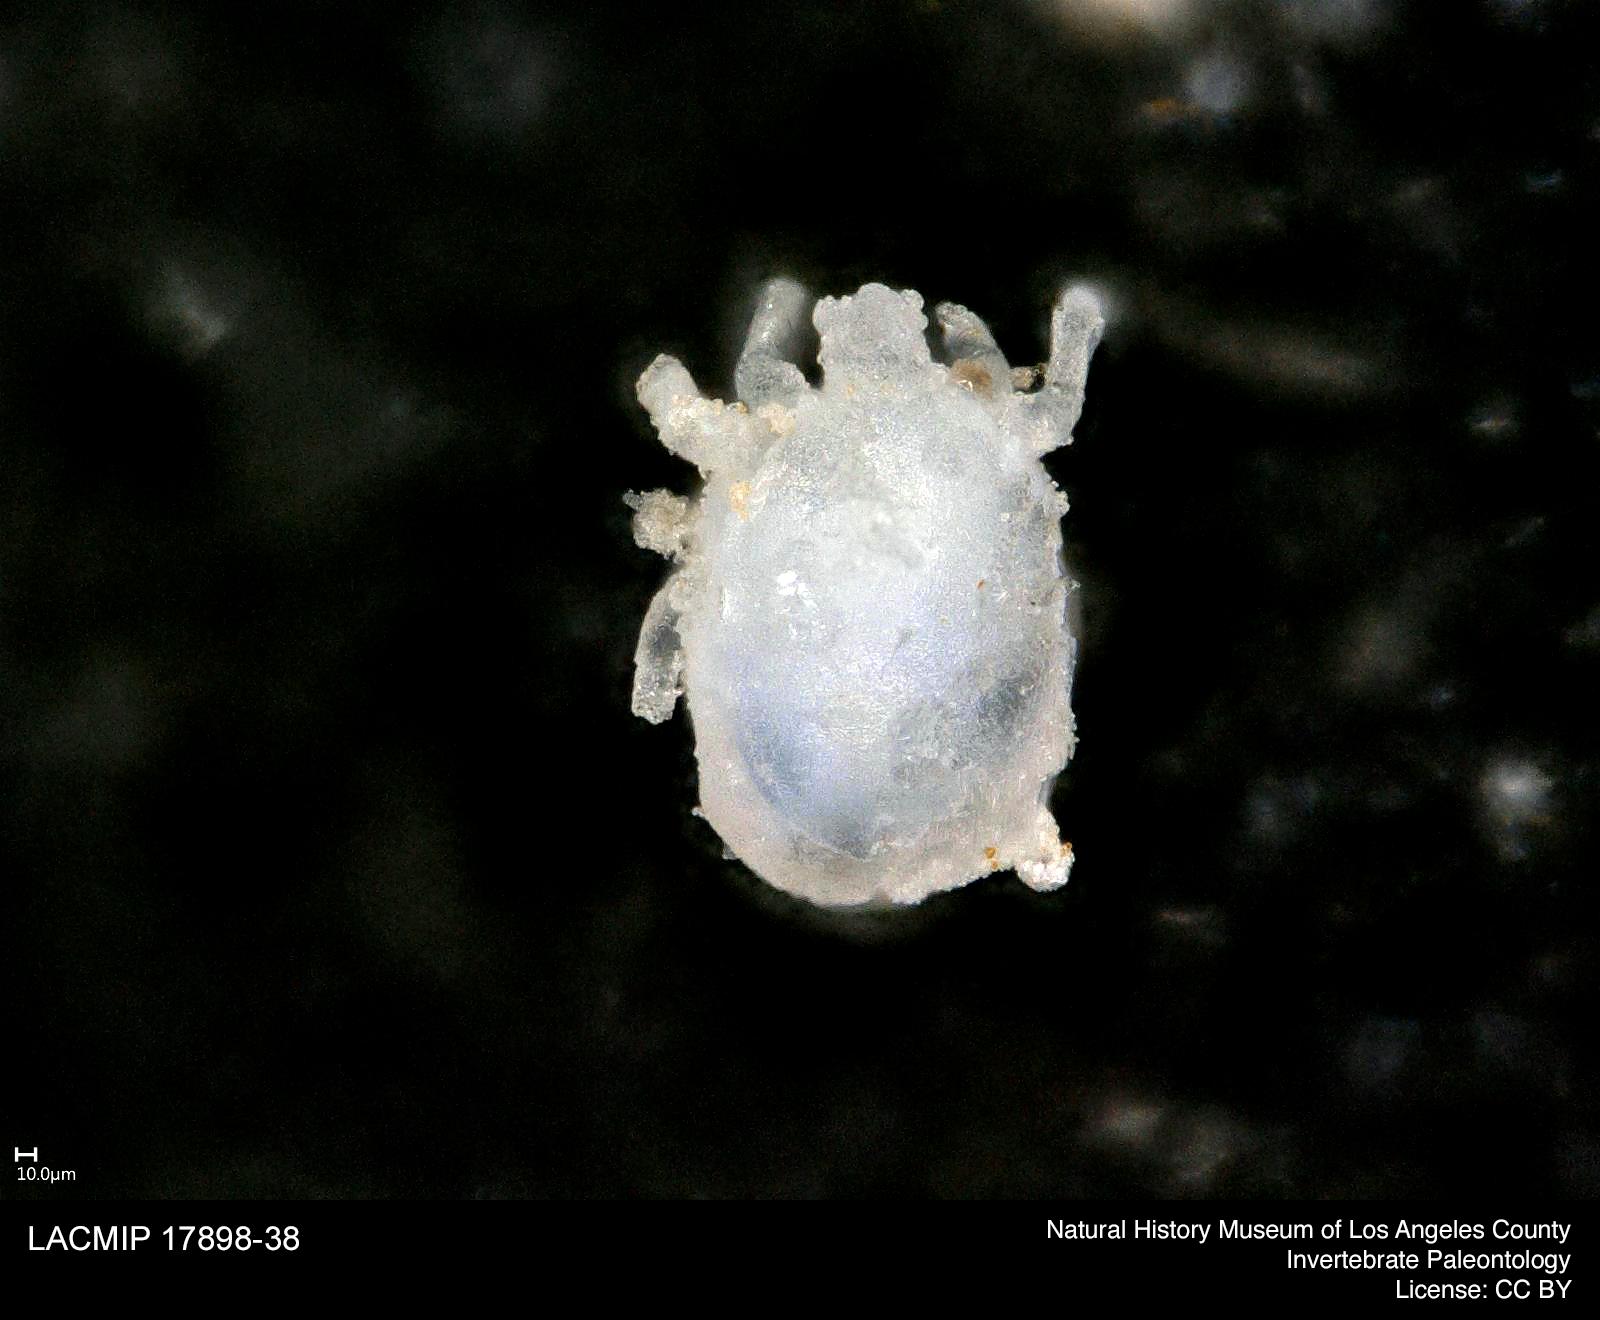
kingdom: Animalia
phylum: Arthropoda
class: Arachnida
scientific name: Arachnida
